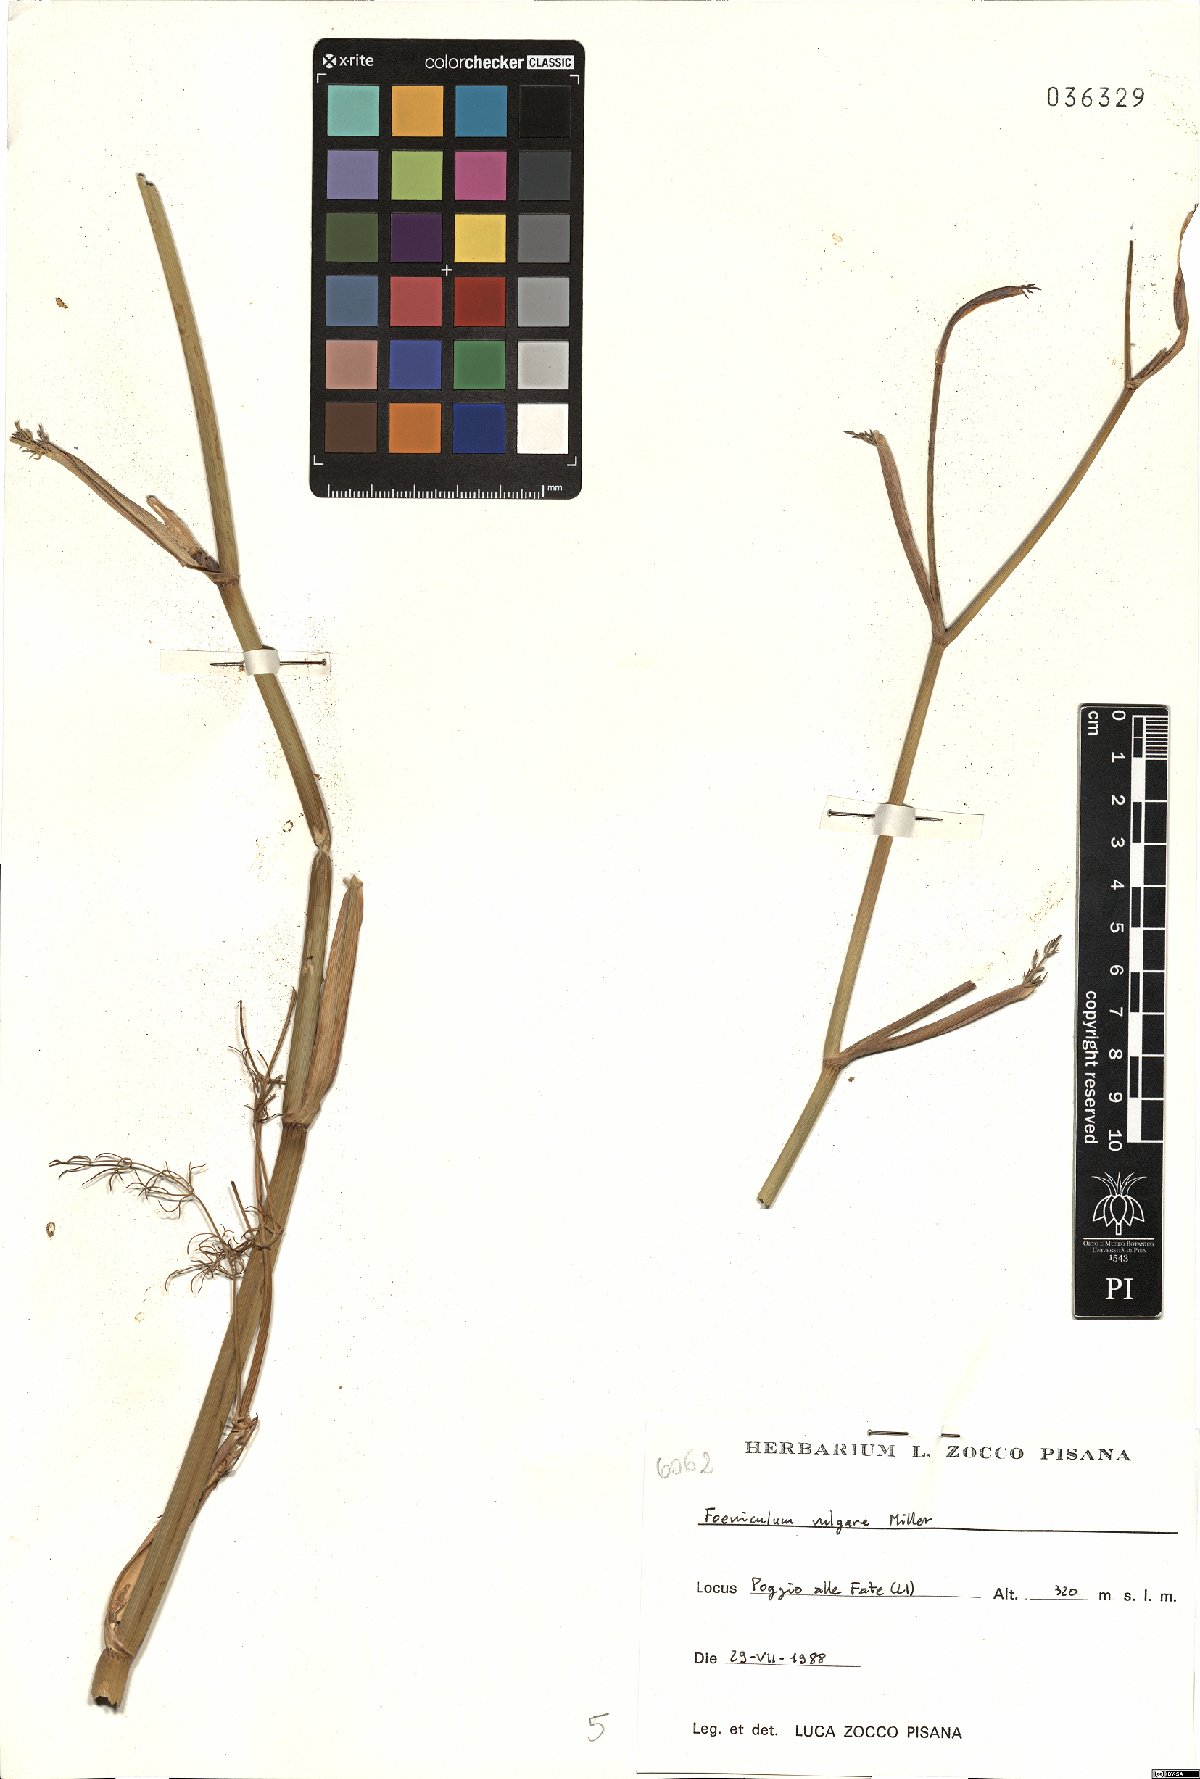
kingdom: Plantae
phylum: Tracheophyta
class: Magnoliopsida
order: Apiales
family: Apiaceae
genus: Foeniculum
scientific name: Foeniculum vulgare
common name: Fennel
